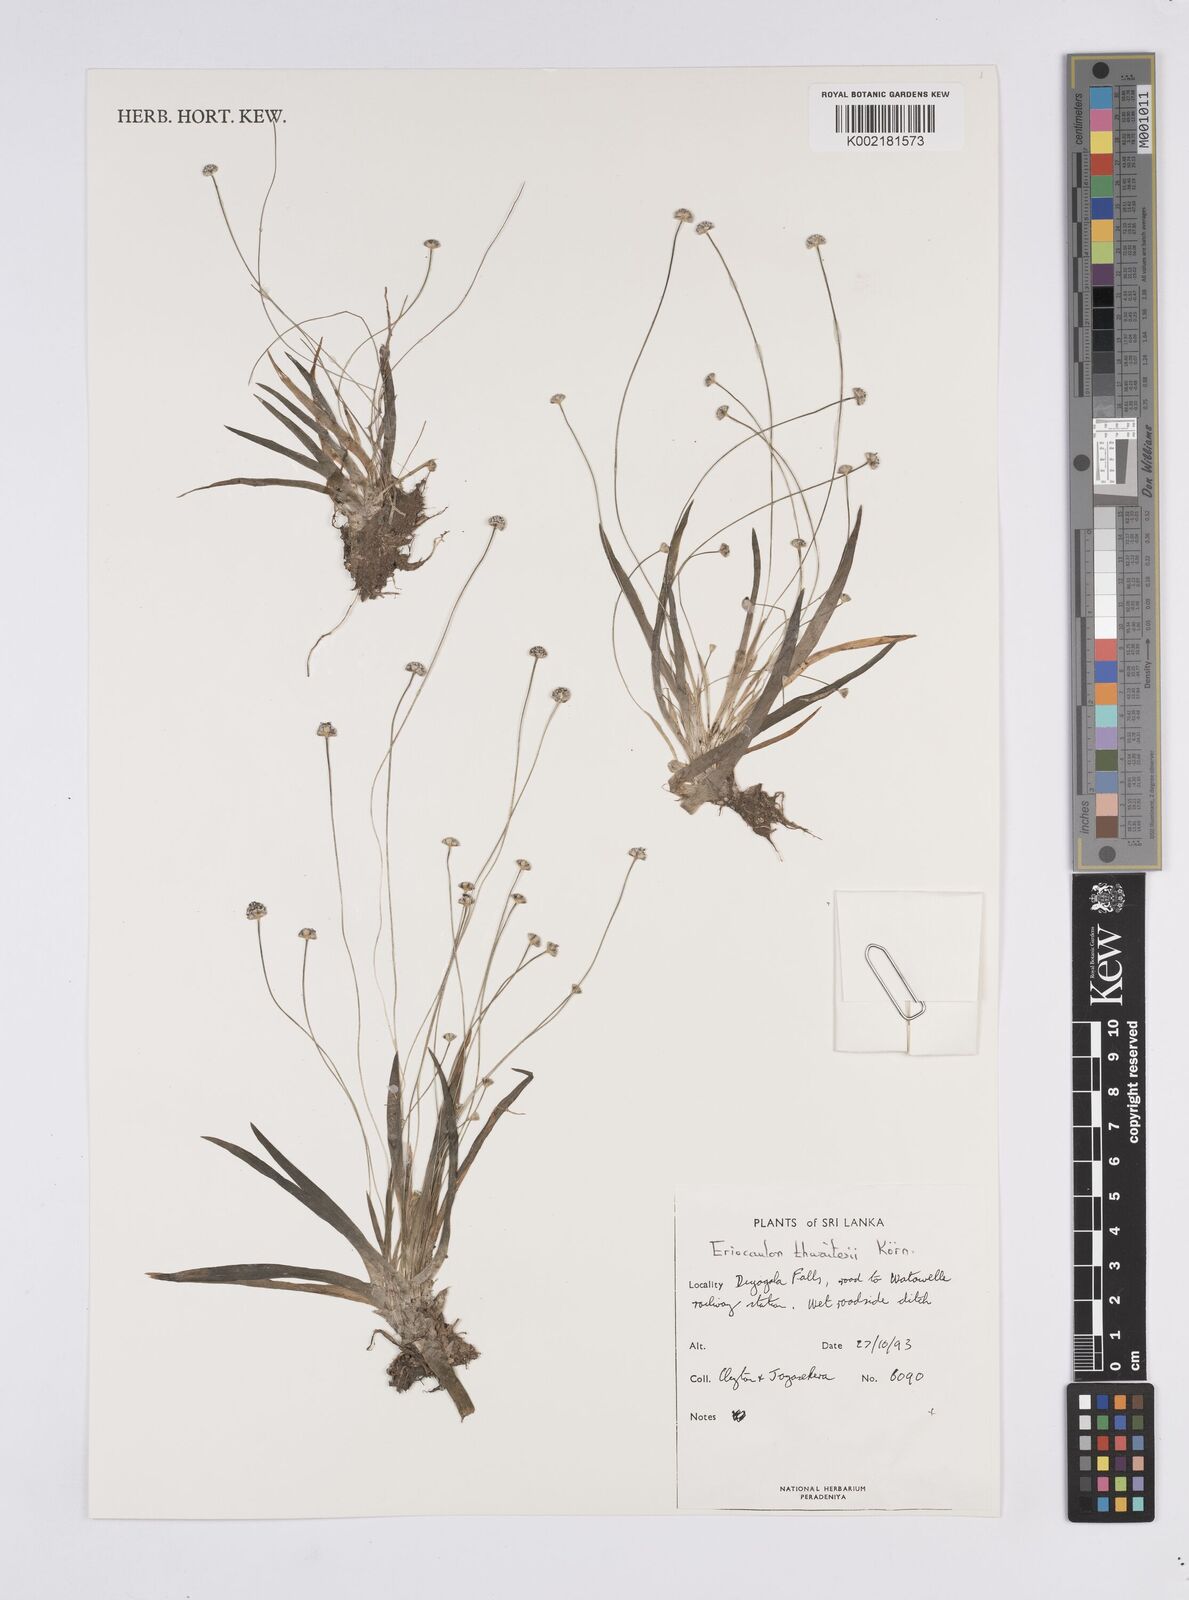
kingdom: Plantae
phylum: Tracheophyta
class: Liliopsida
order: Poales
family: Eriocaulaceae
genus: Eriocaulon
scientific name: Eriocaulon thwaitesii
